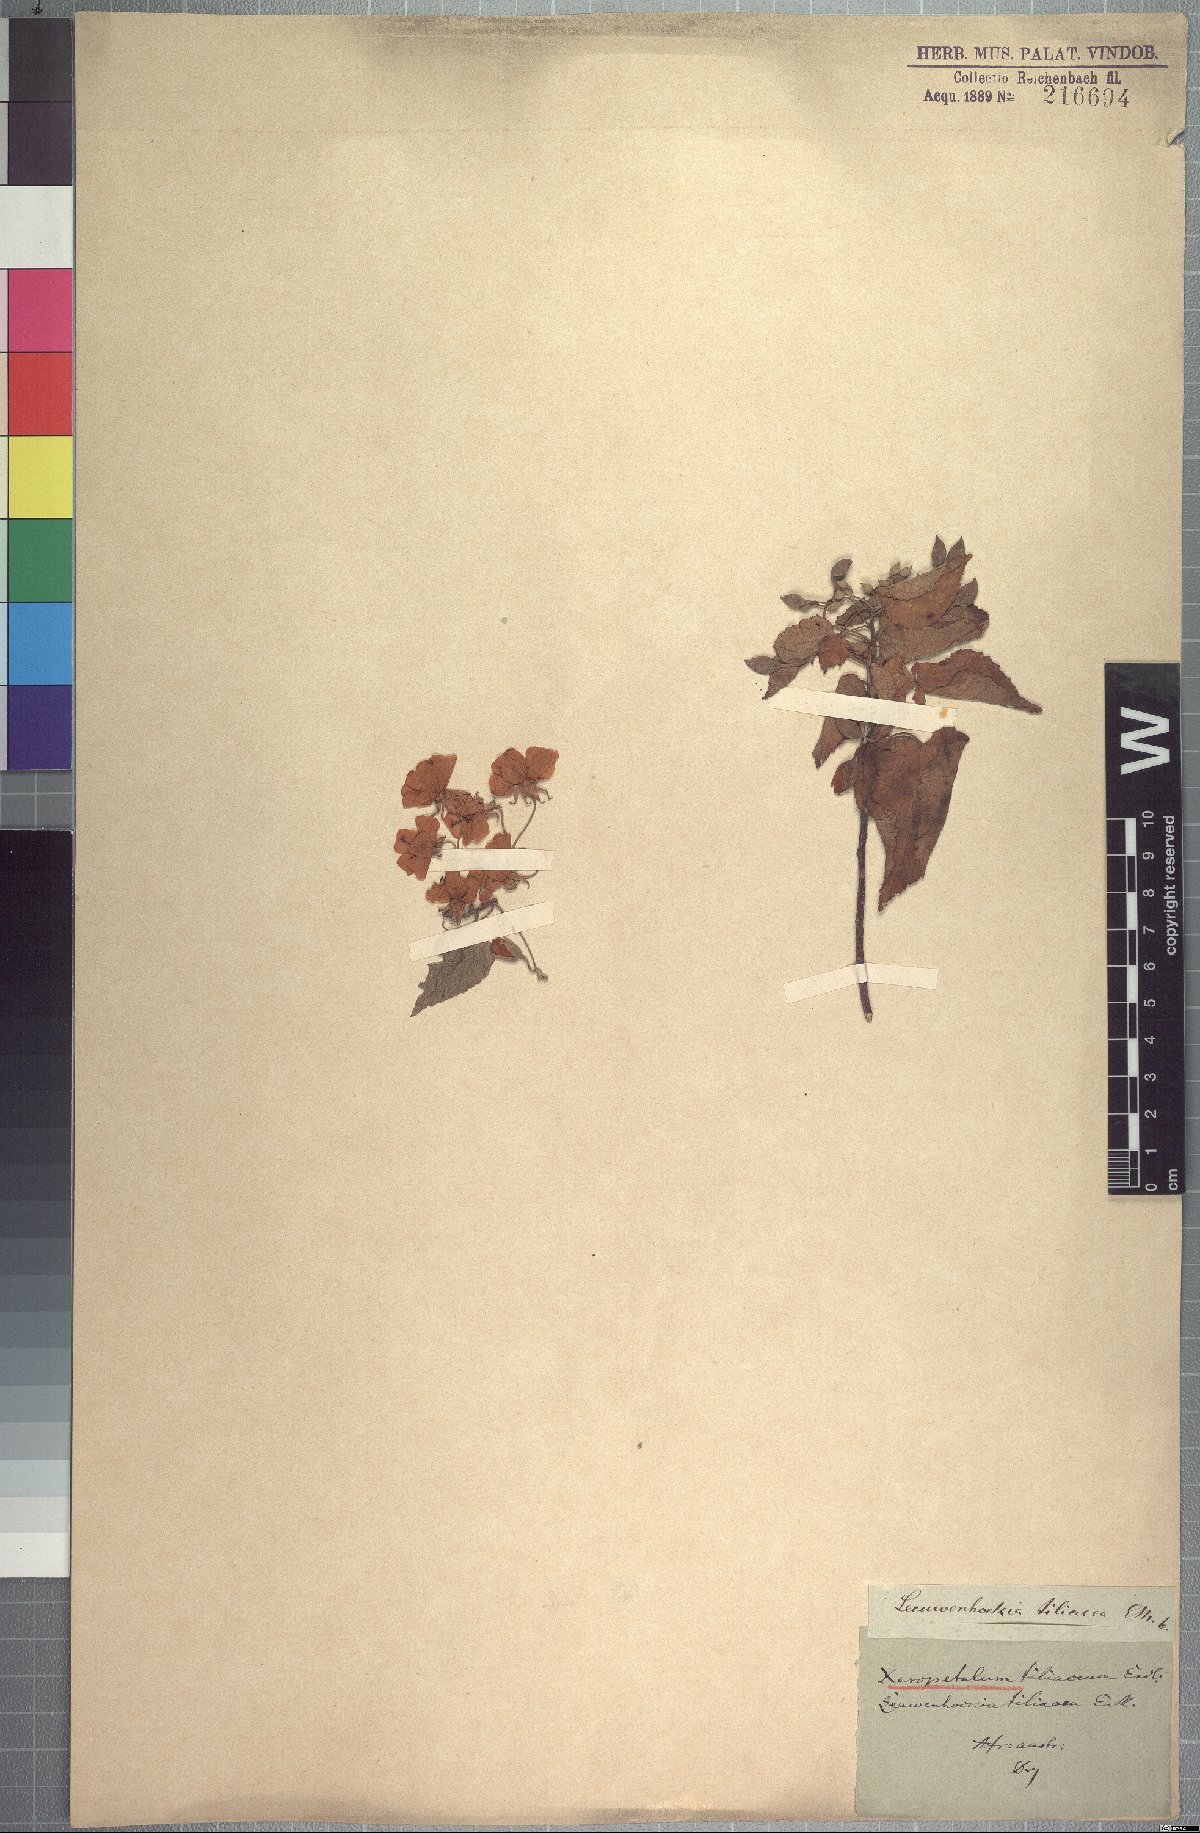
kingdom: Plantae
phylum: Tracheophyta
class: Magnoliopsida
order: Malvales
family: Malvaceae
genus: Dombeya
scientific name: Dombeya tiliacea
